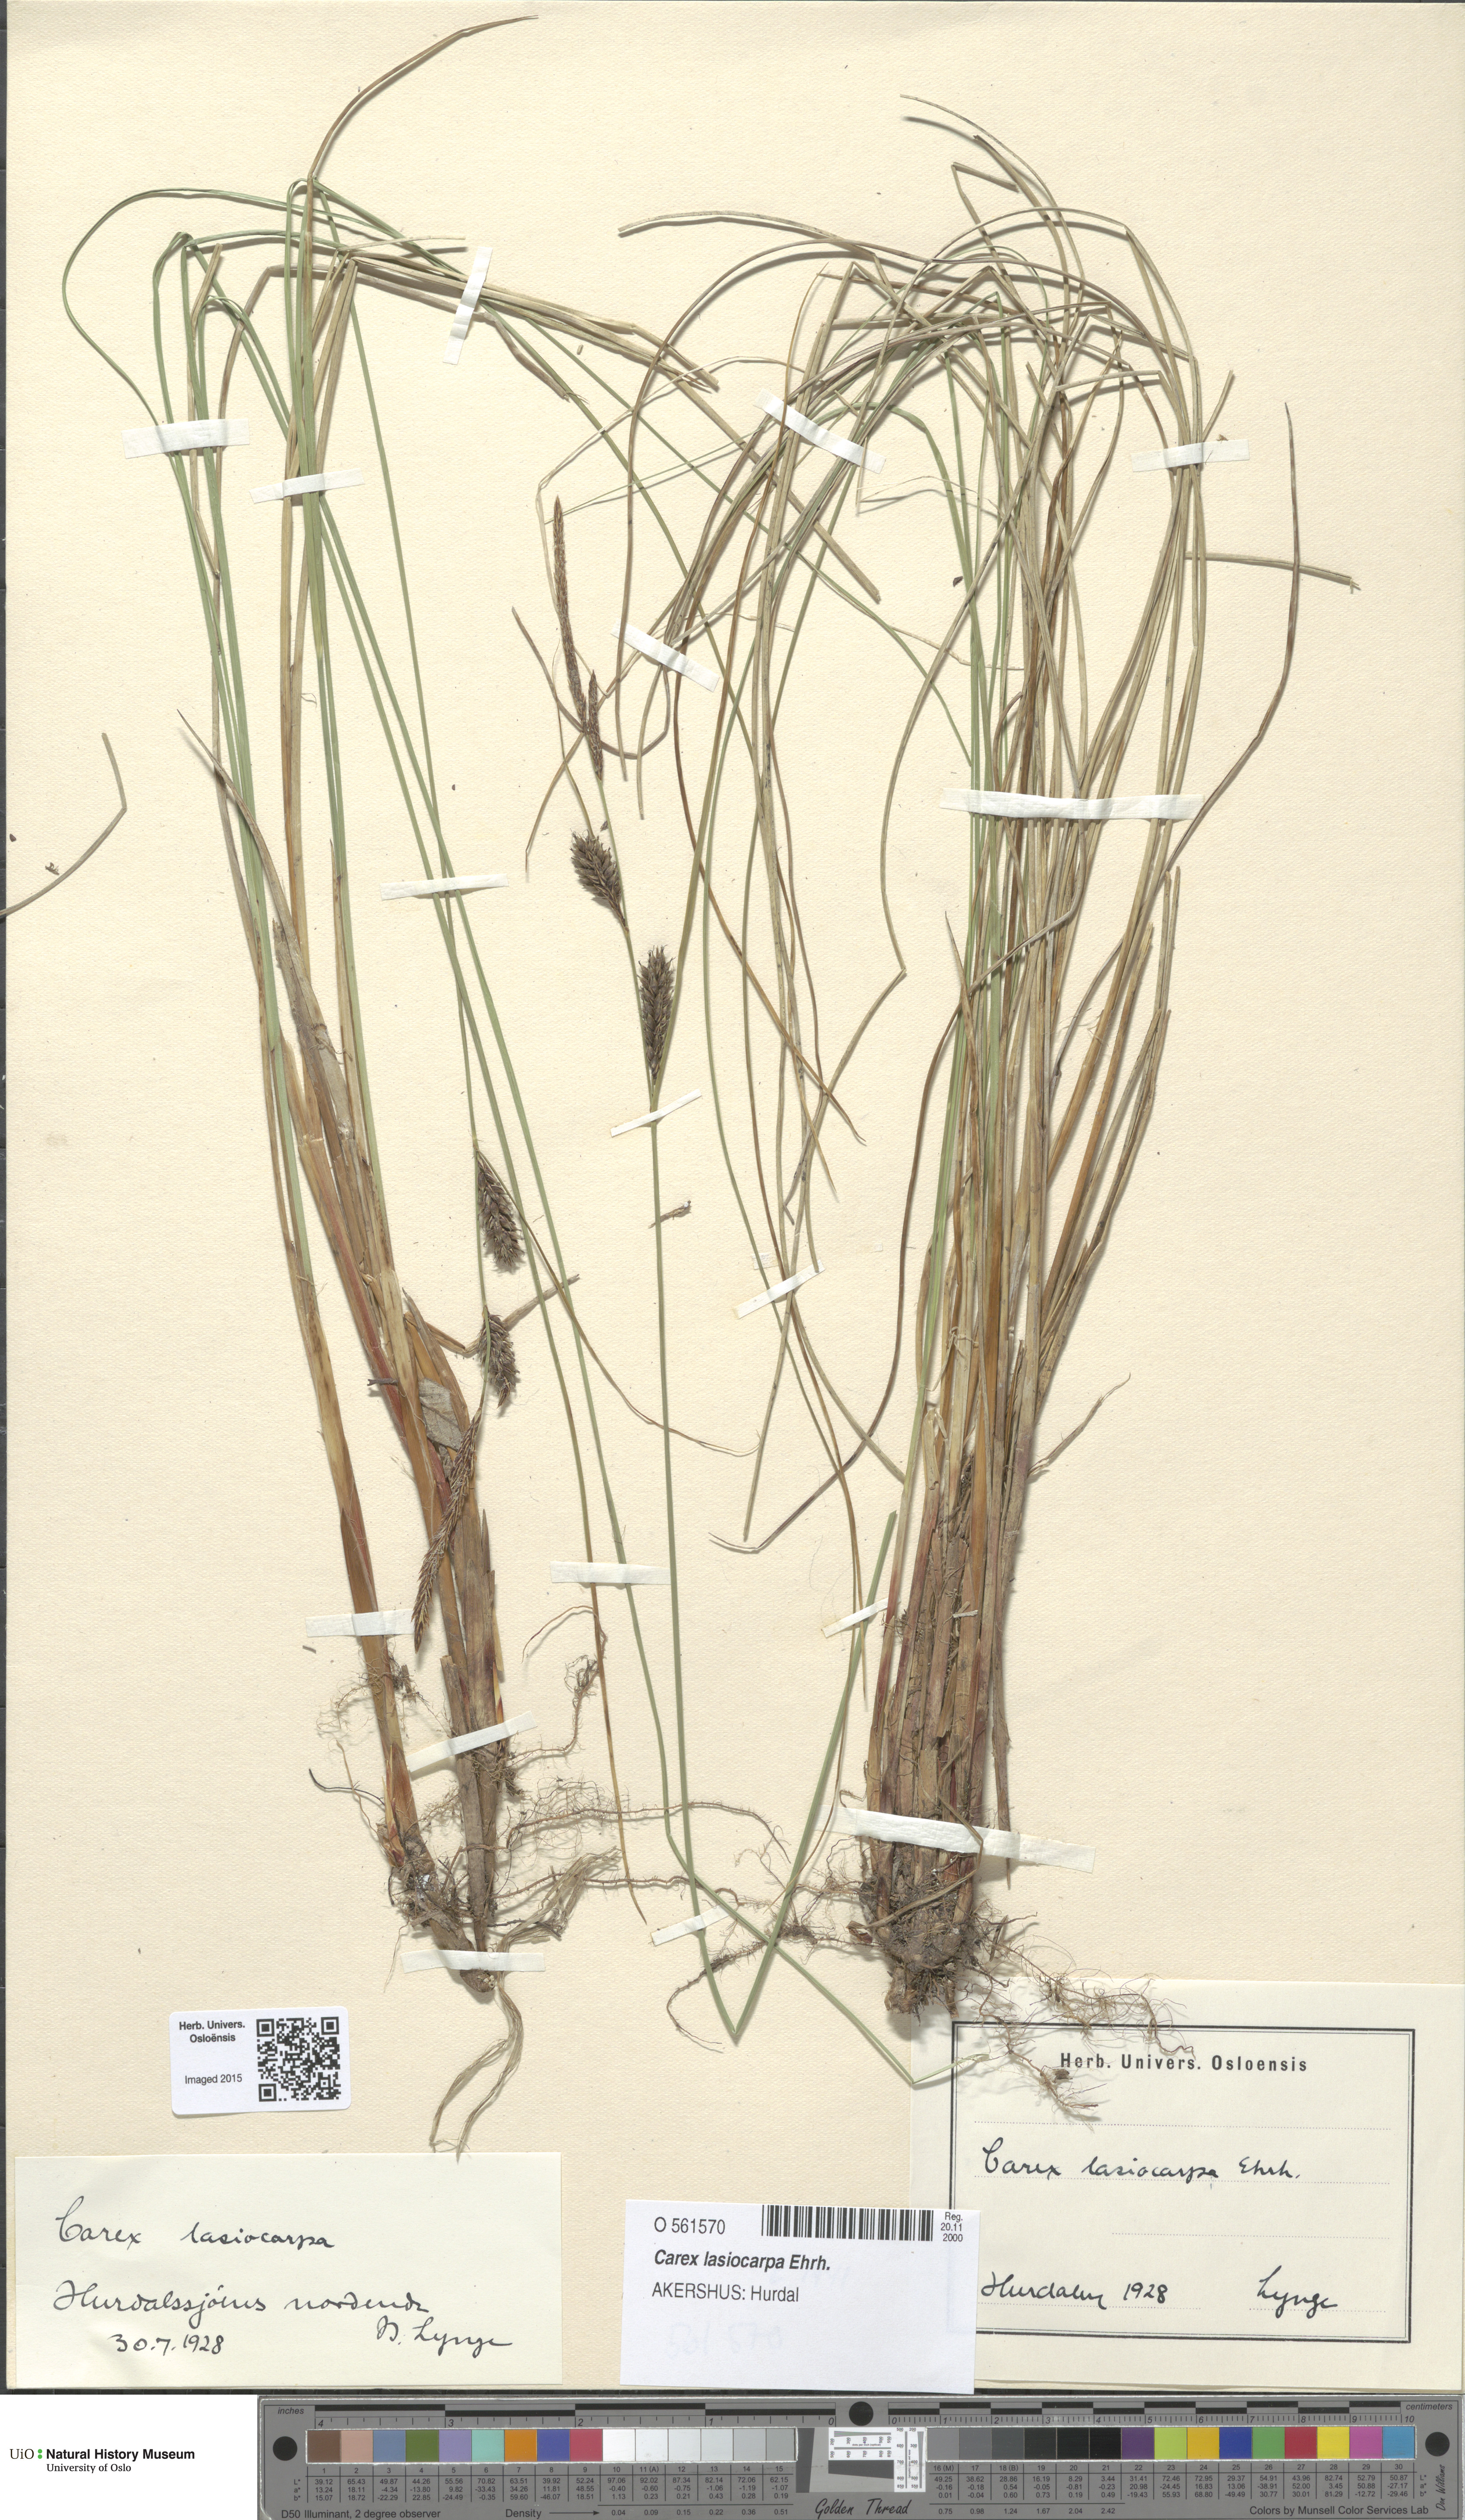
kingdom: Plantae
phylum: Tracheophyta
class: Liliopsida
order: Poales
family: Cyperaceae
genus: Carex
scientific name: Carex lasiocarpa
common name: Slender sedge
